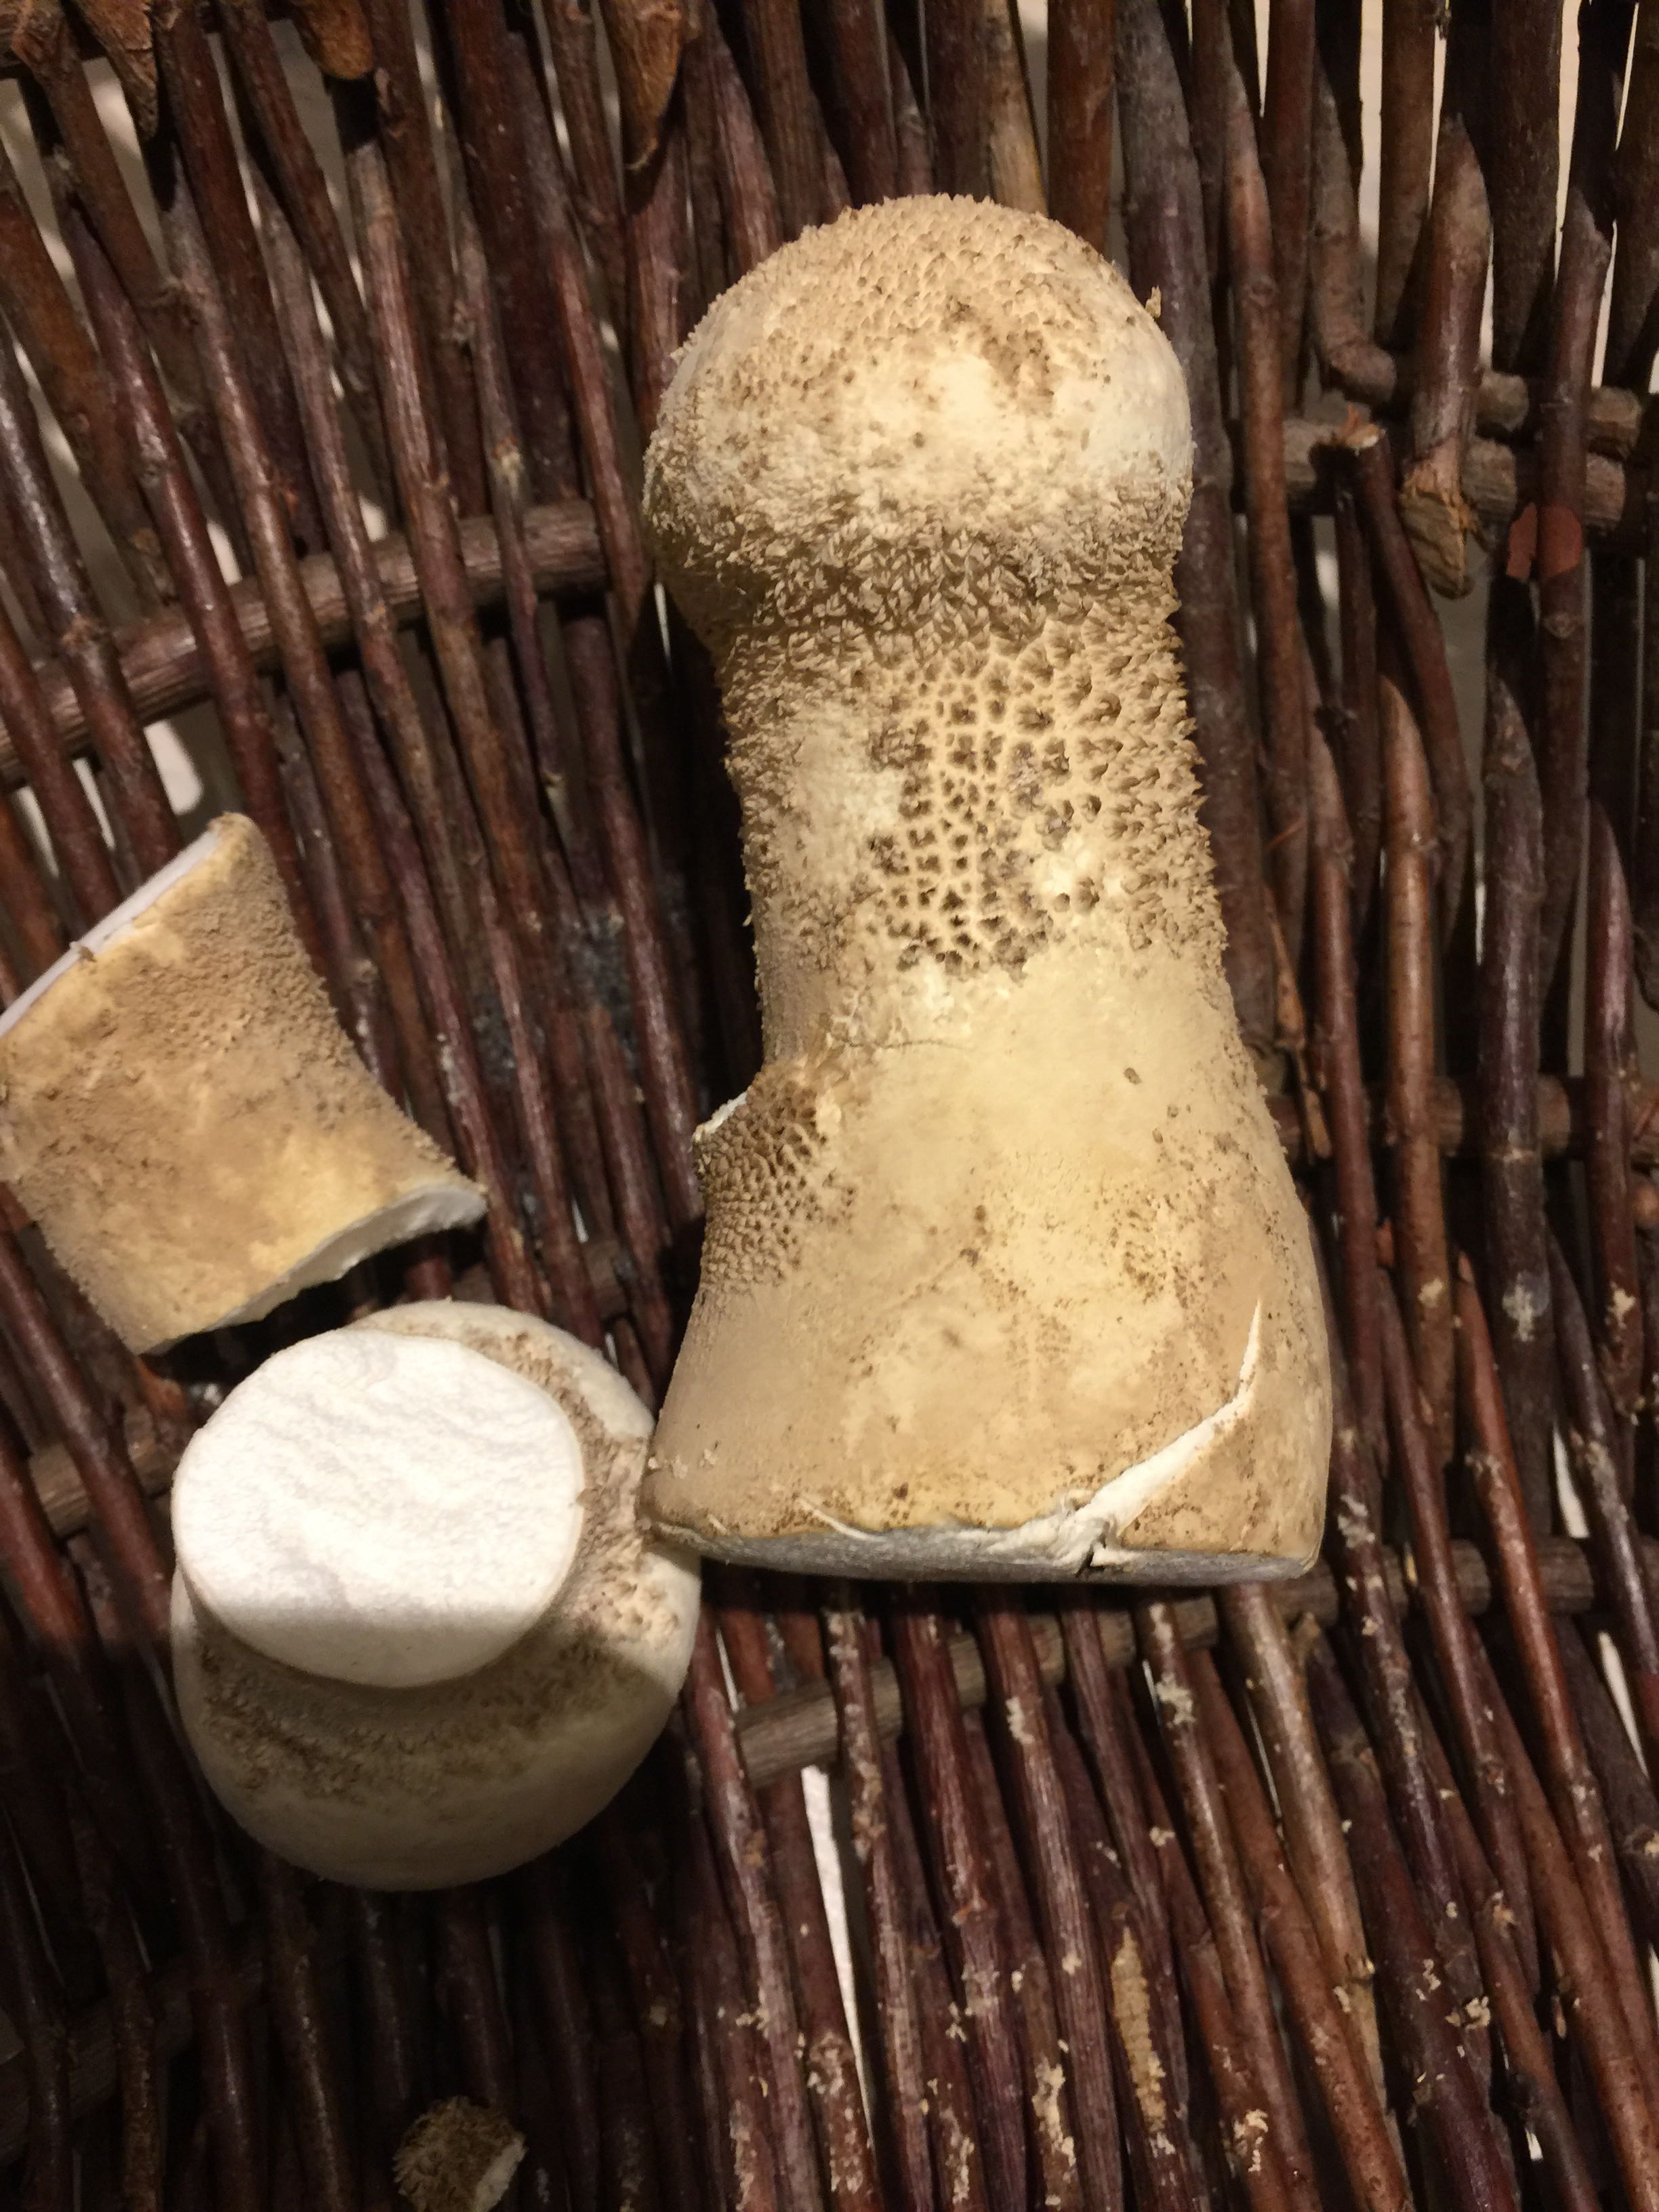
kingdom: Fungi
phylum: Basidiomycota
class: Agaricomycetes
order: Agaricales
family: Lycoperdaceae
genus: Lycoperdon
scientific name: Lycoperdon excipuliforme
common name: højstokket støvbold
